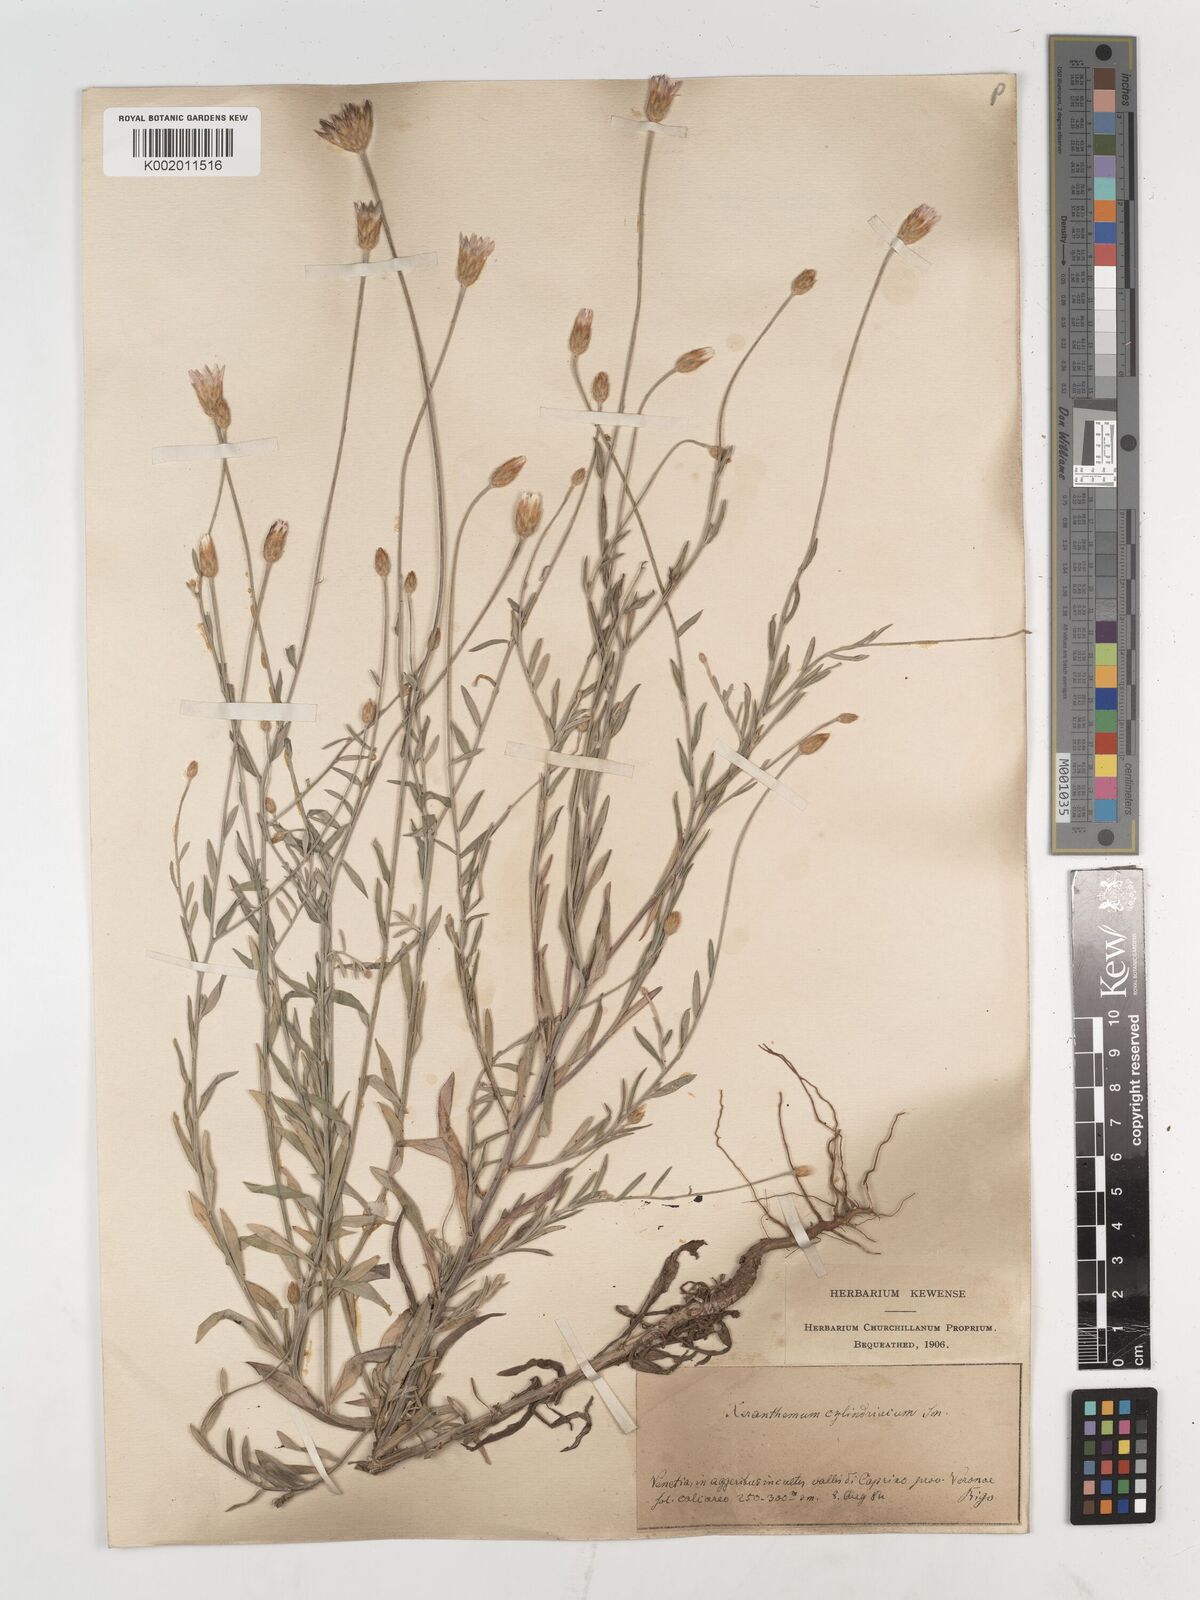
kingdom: Plantae
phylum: Tracheophyta
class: Magnoliopsida
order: Asterales
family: Asteraceae
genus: Xeranthemum
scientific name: Xeranthemum cylindraceum
